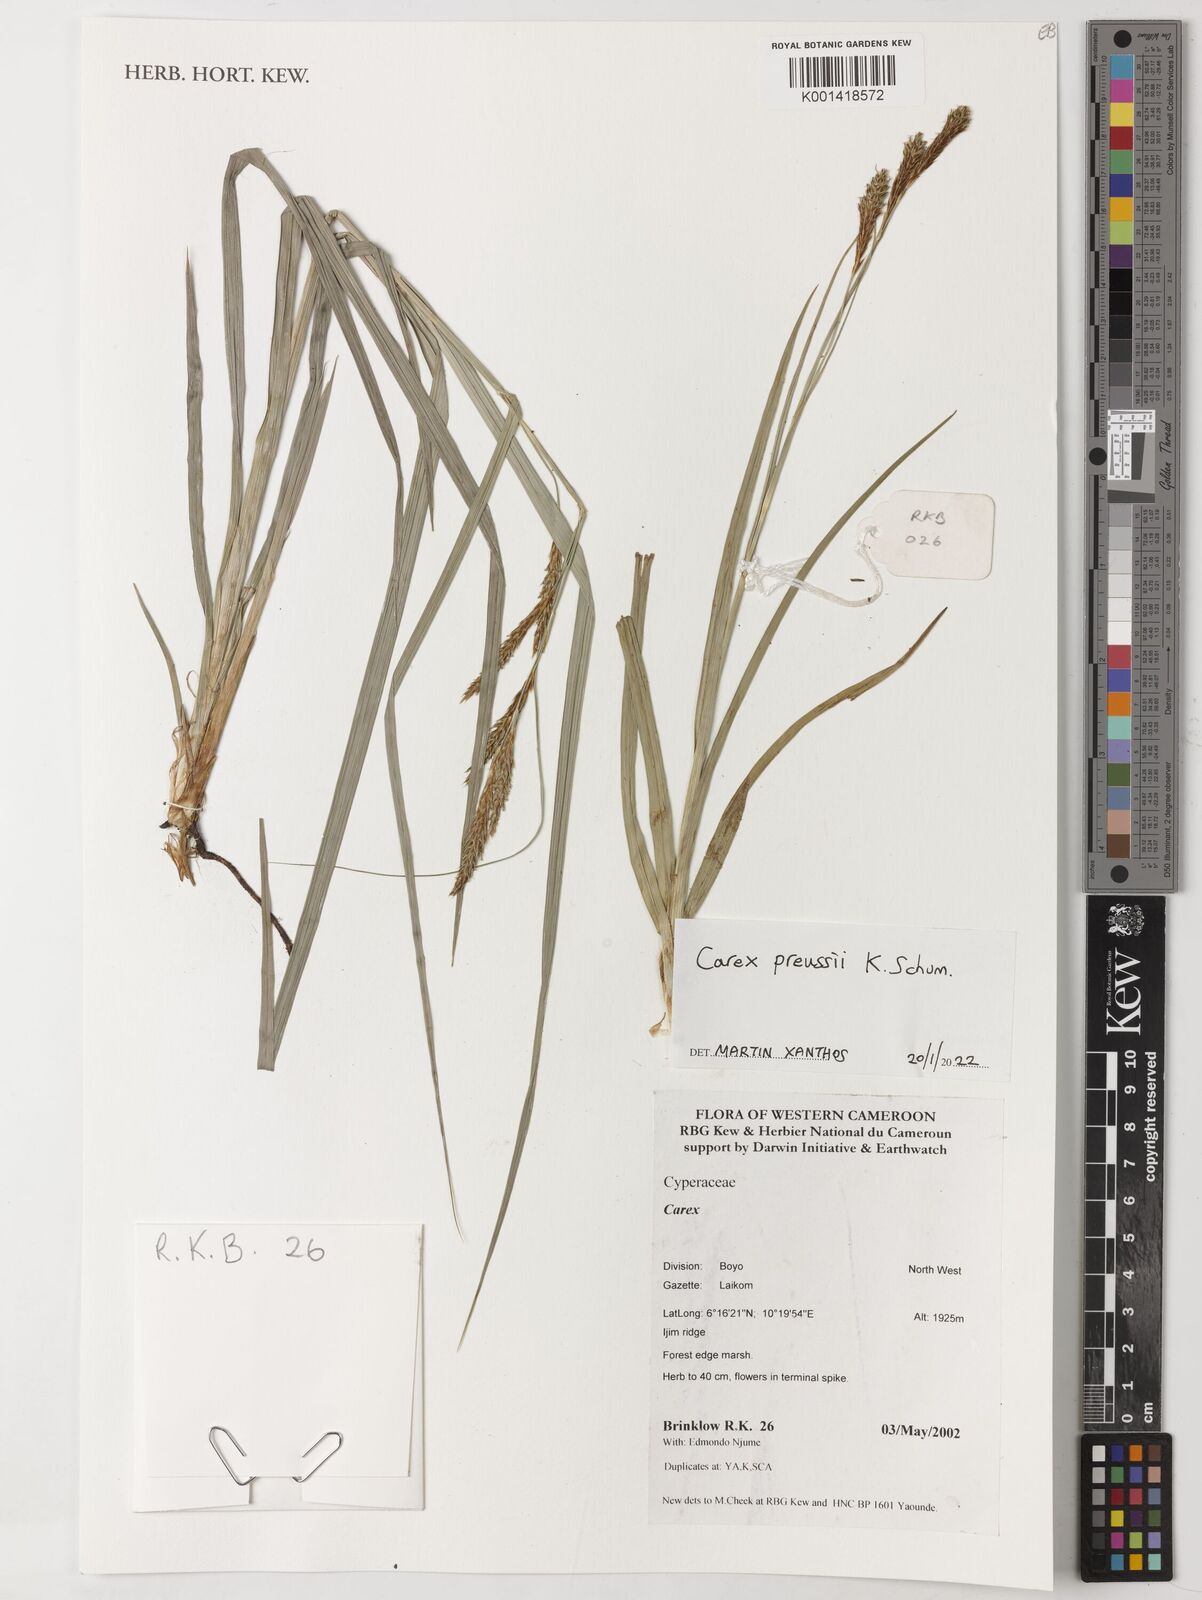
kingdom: Plantae
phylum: Tracheophyta
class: Liliopsida
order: Poales
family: Cyperaceae
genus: Carex
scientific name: Carex petitiana
